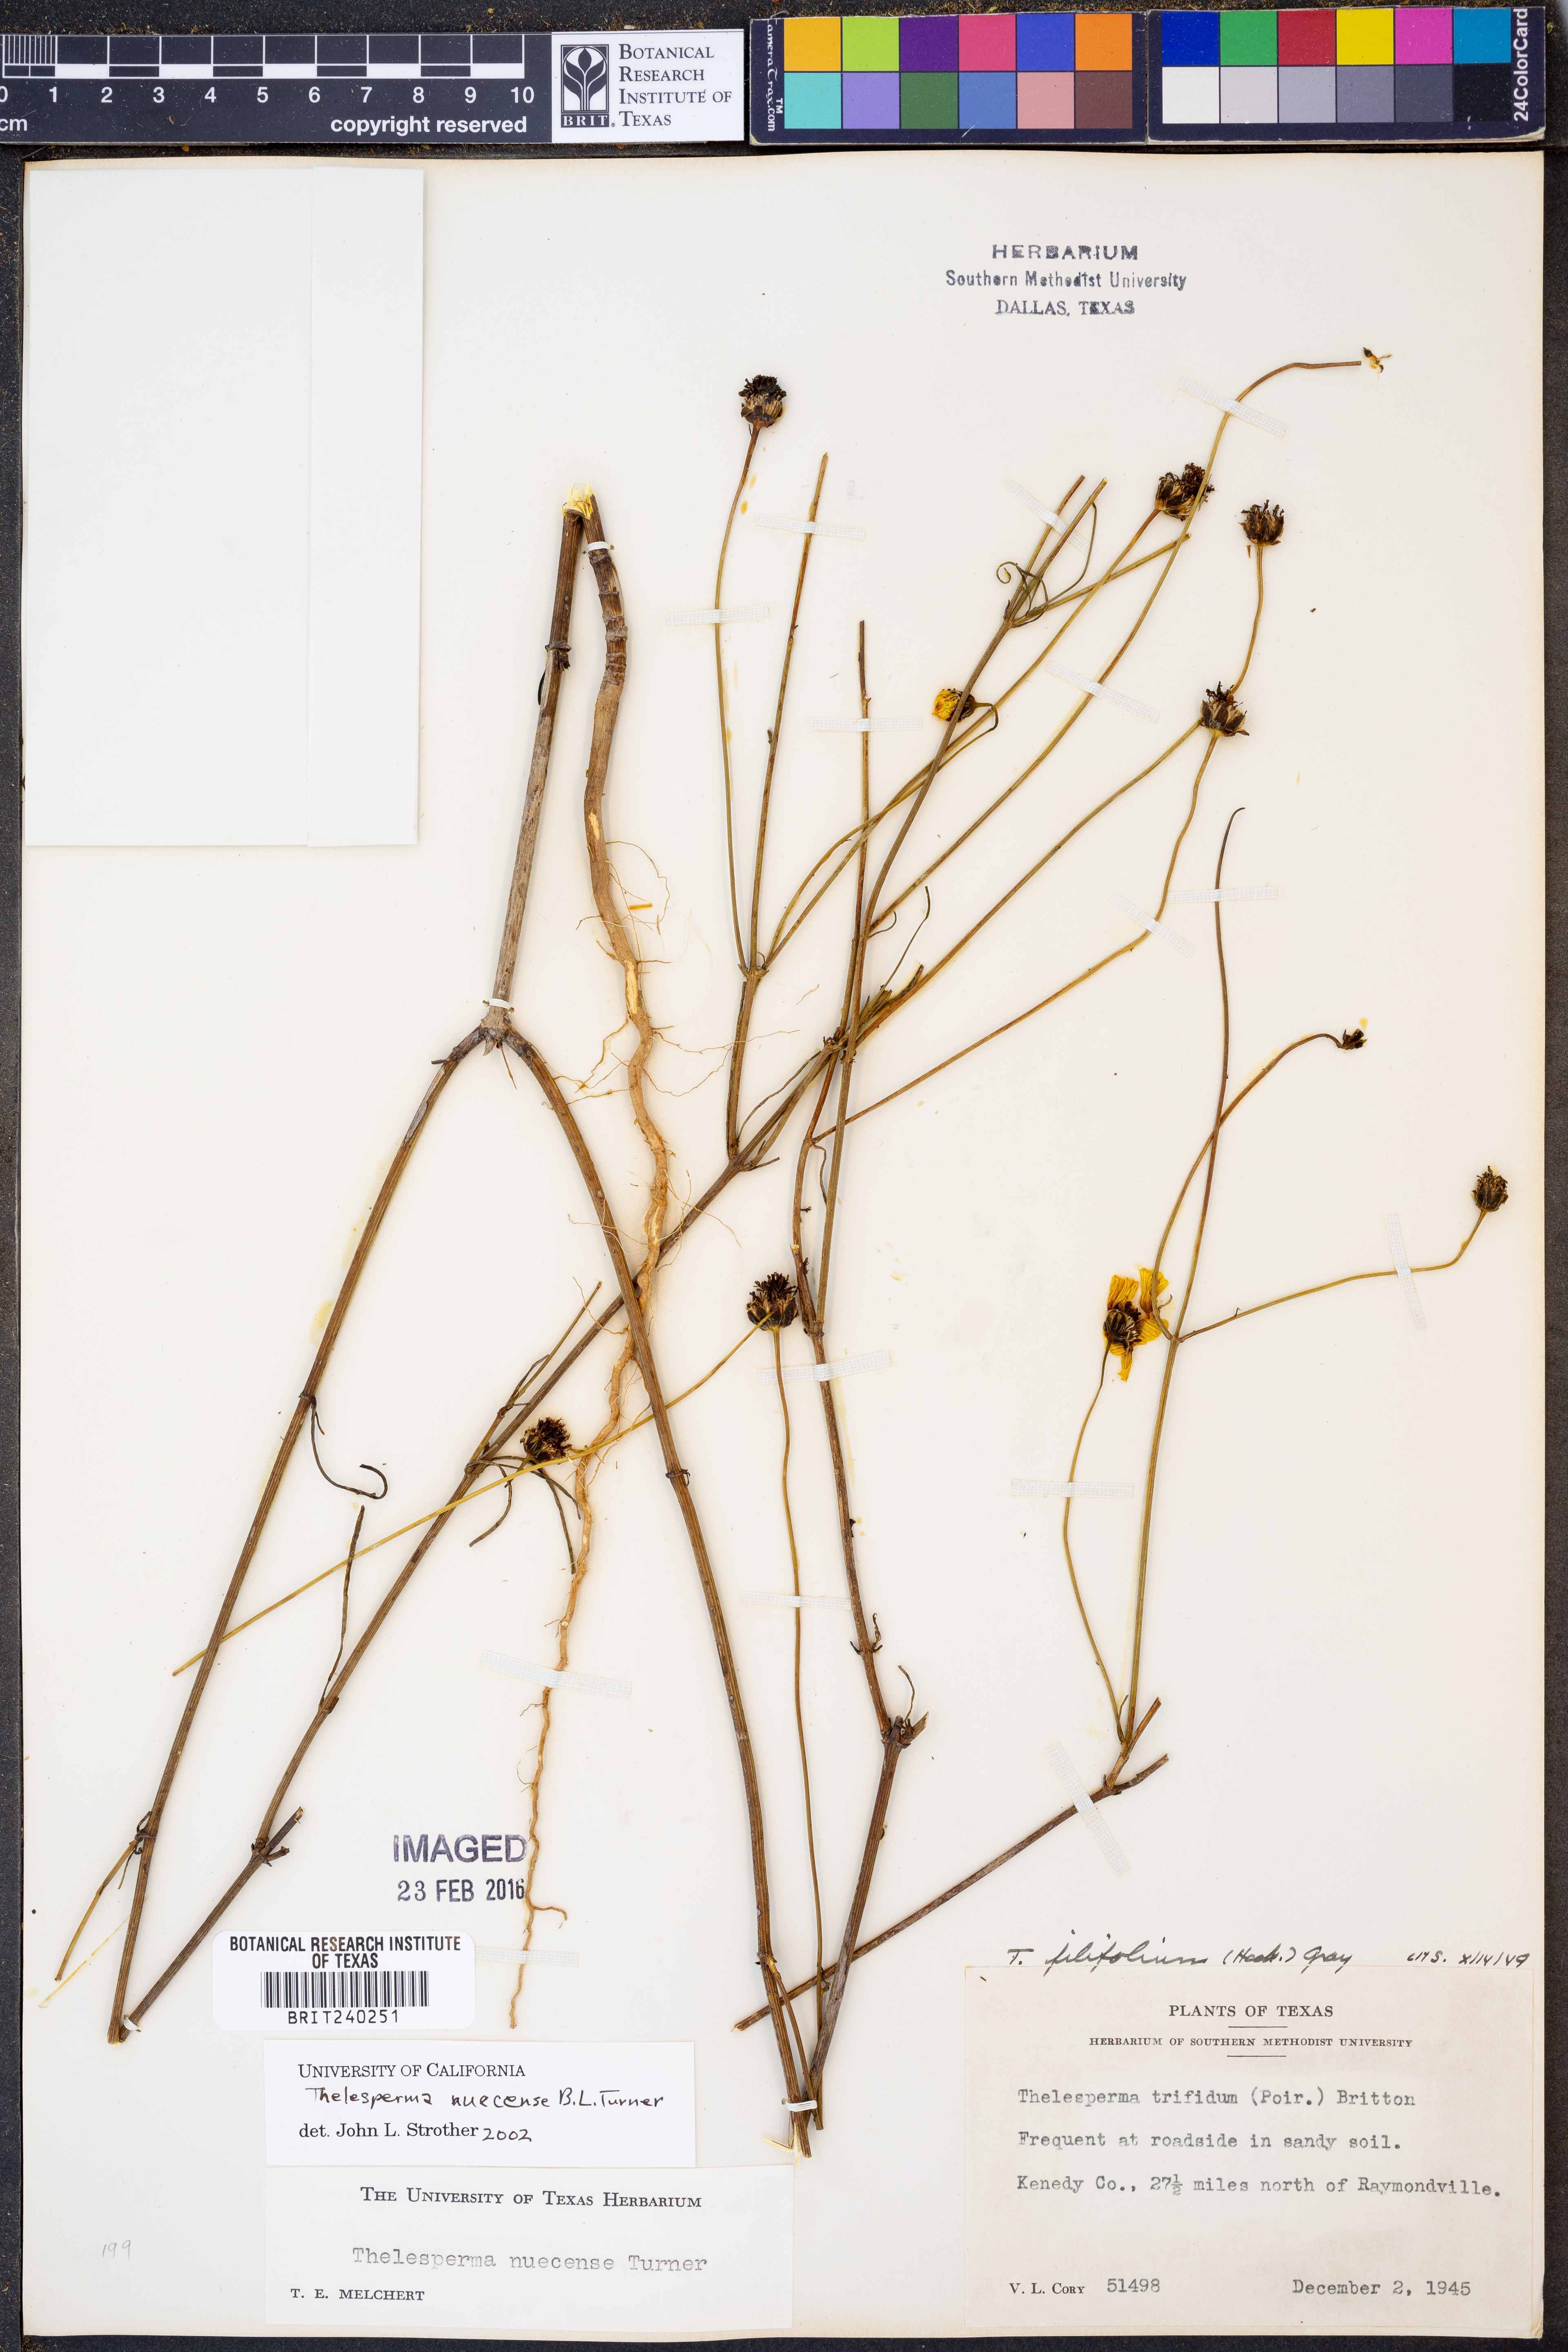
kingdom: Plantae
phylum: Tracheophyta
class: Magnoliopsida
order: Asterales
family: Asteraceae
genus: Thelesperma
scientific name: Thelesperma nuecense
